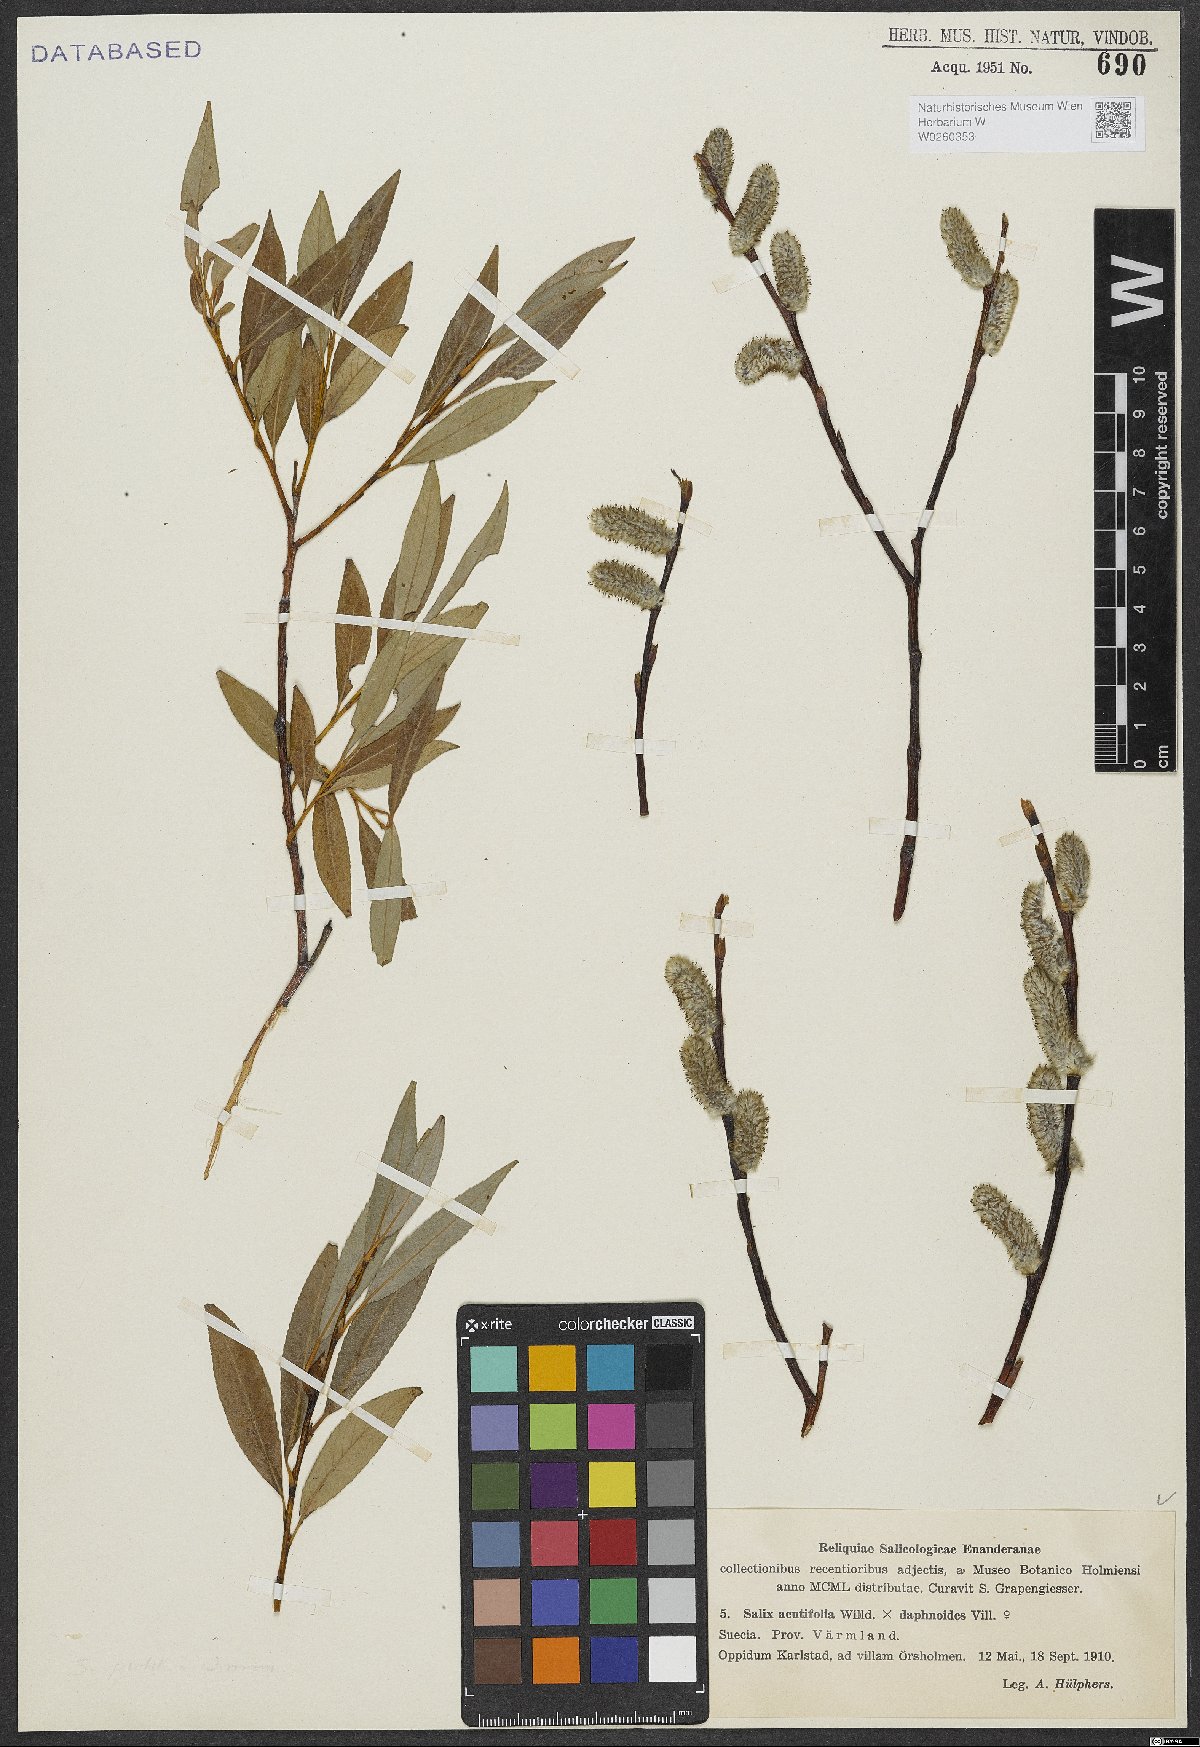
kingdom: Plantae
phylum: Tracheophyta
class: Magnoliopsida
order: Malpighiales
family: Salicaceae
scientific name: Salicaceae
